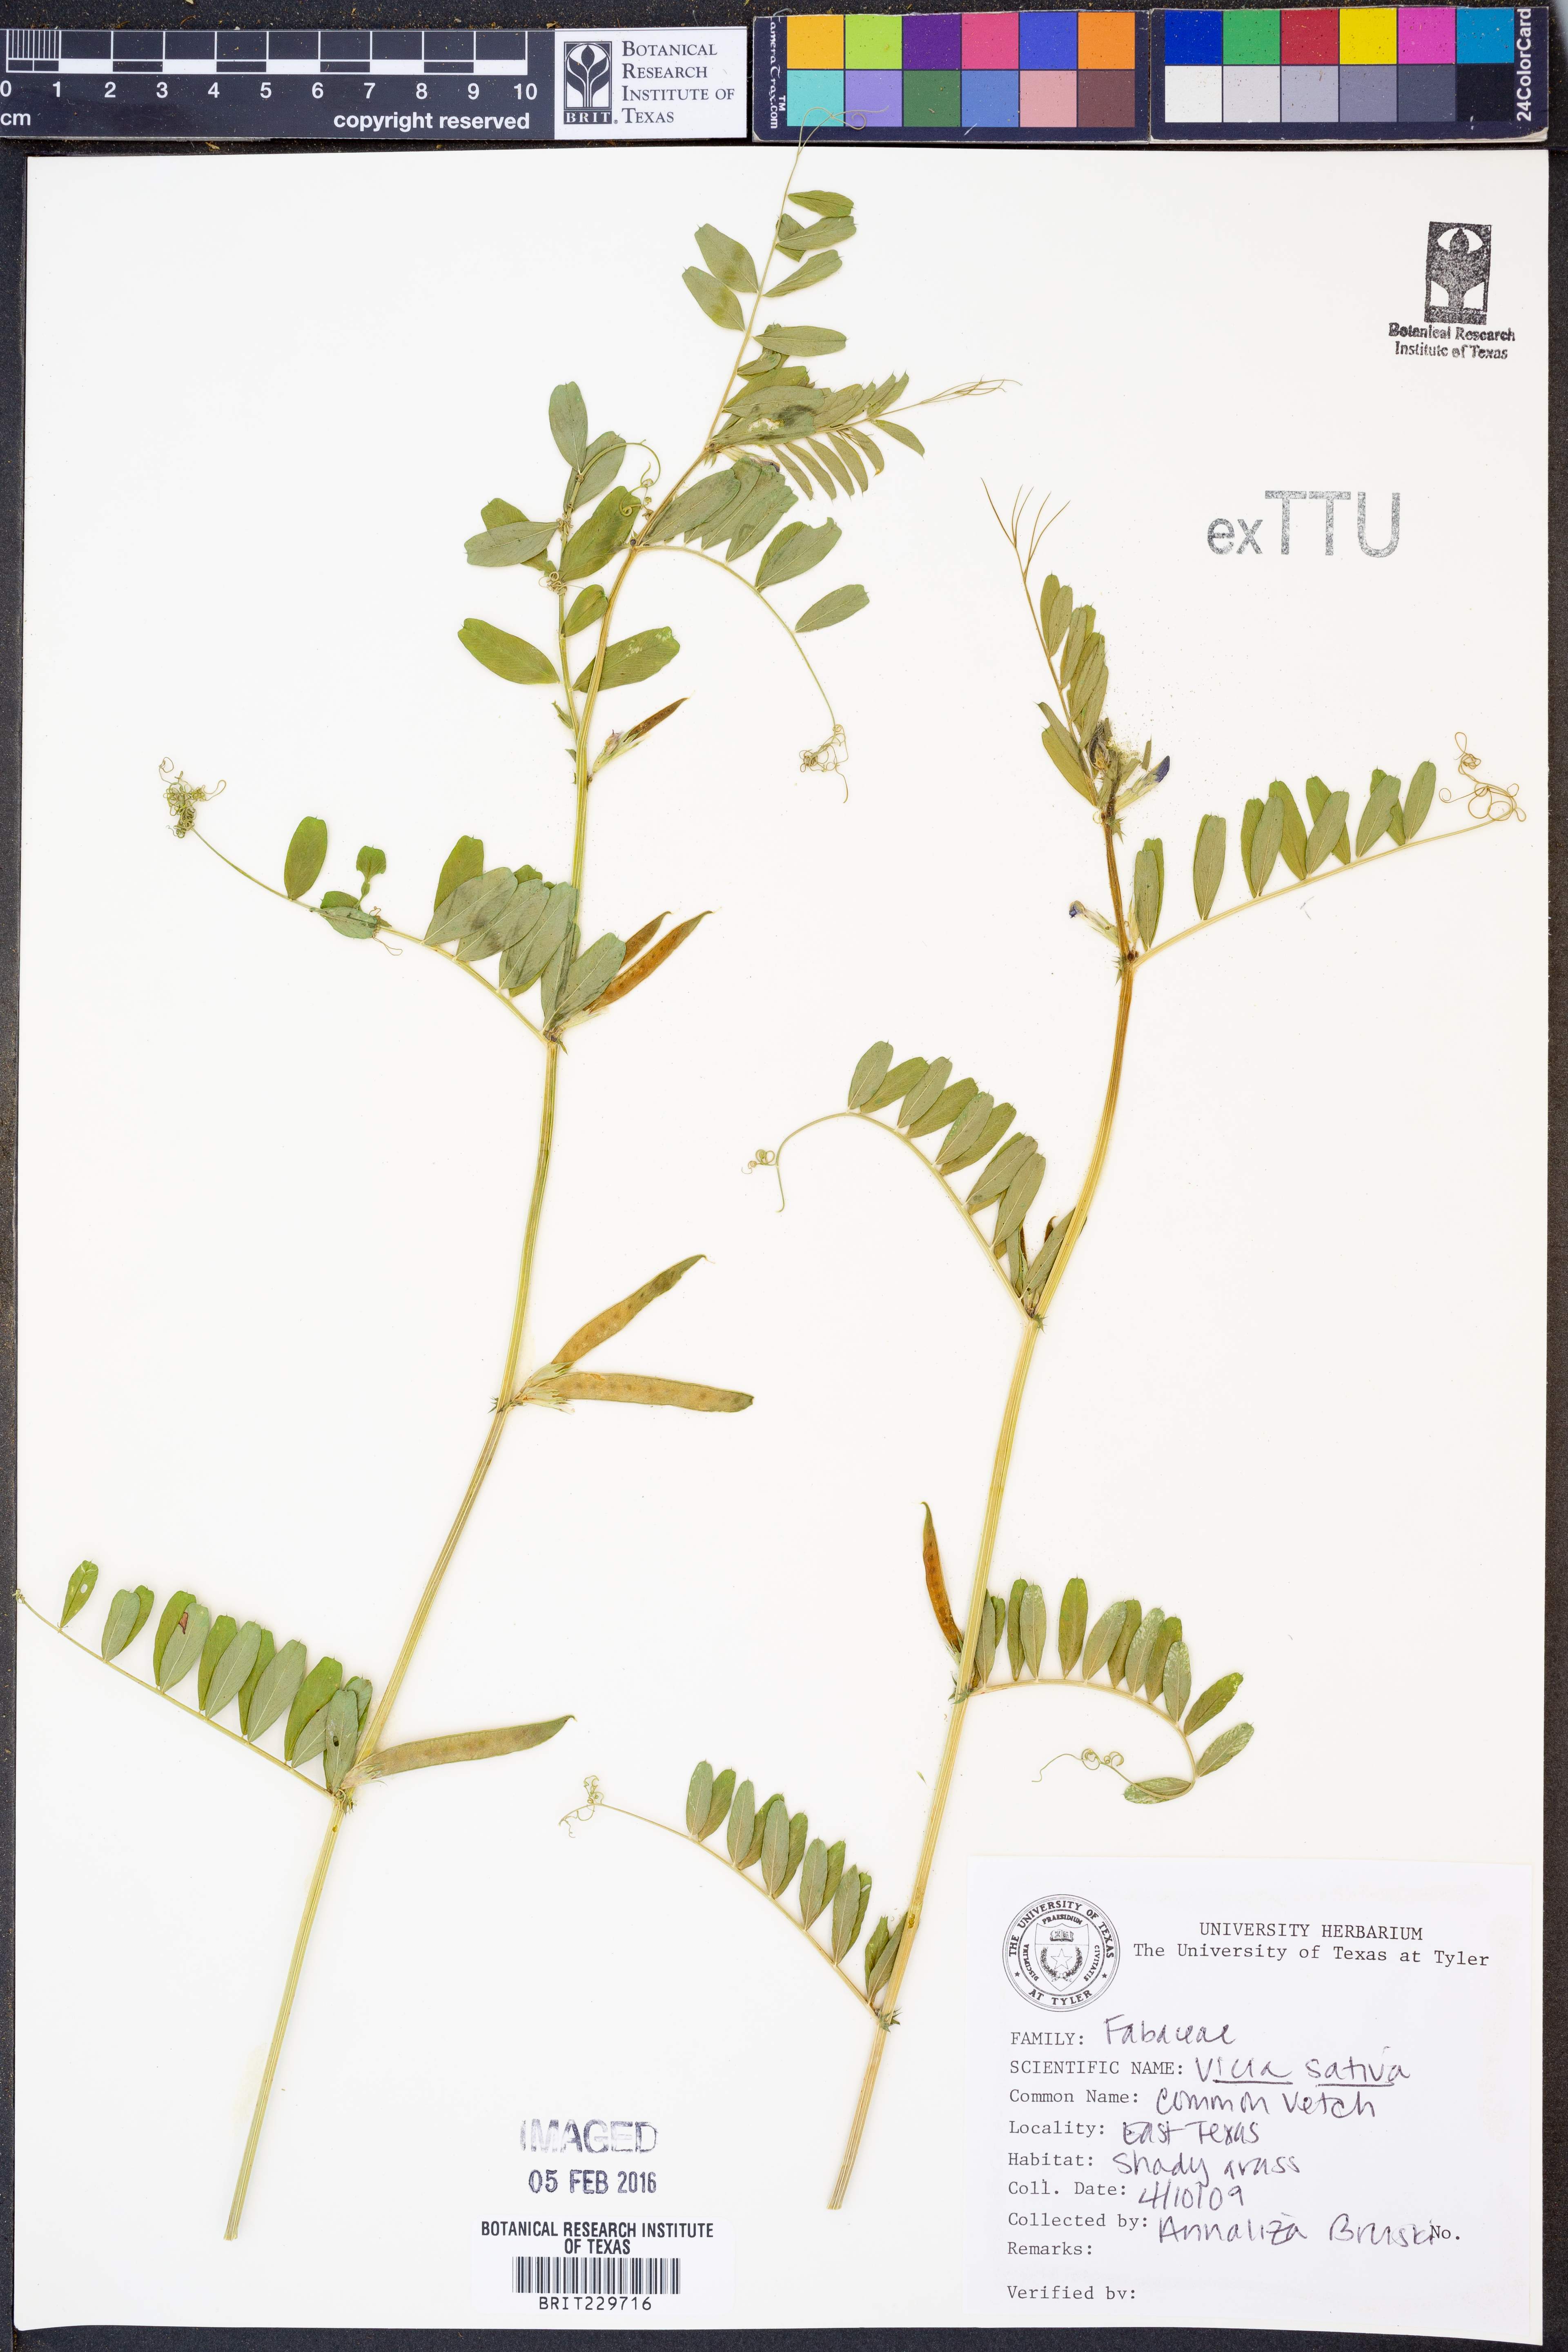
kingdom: Plantae
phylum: Tracheophyta
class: Magnoliopsida
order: Fabales
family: Fabaceae
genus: Vicia
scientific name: Vicia sativa
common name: Garden vetch
